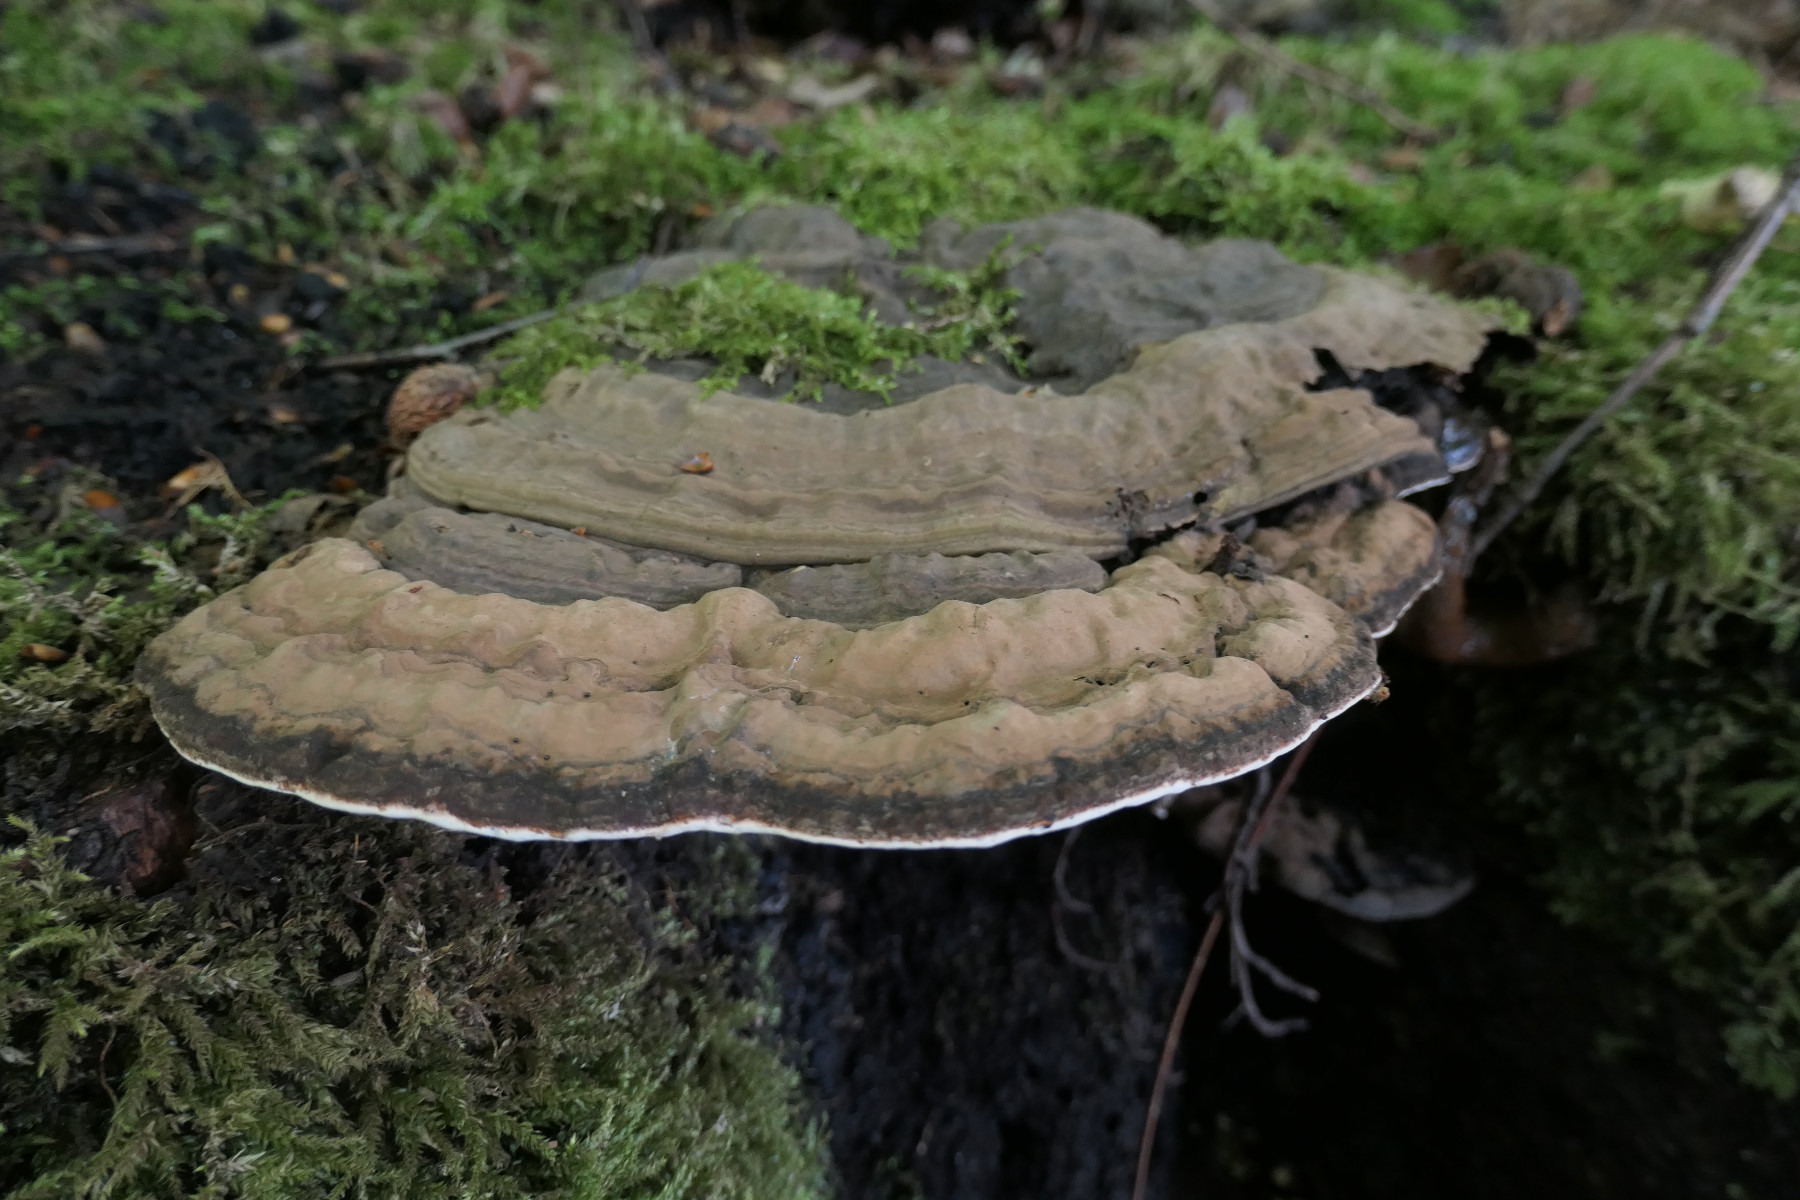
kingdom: Fungi
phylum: Basidiomycota
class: Agaricomycetes
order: Polyporales
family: Polyporaceae
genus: Ganoderma
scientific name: Ganoderma applanatum
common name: flad lakporesvamp
